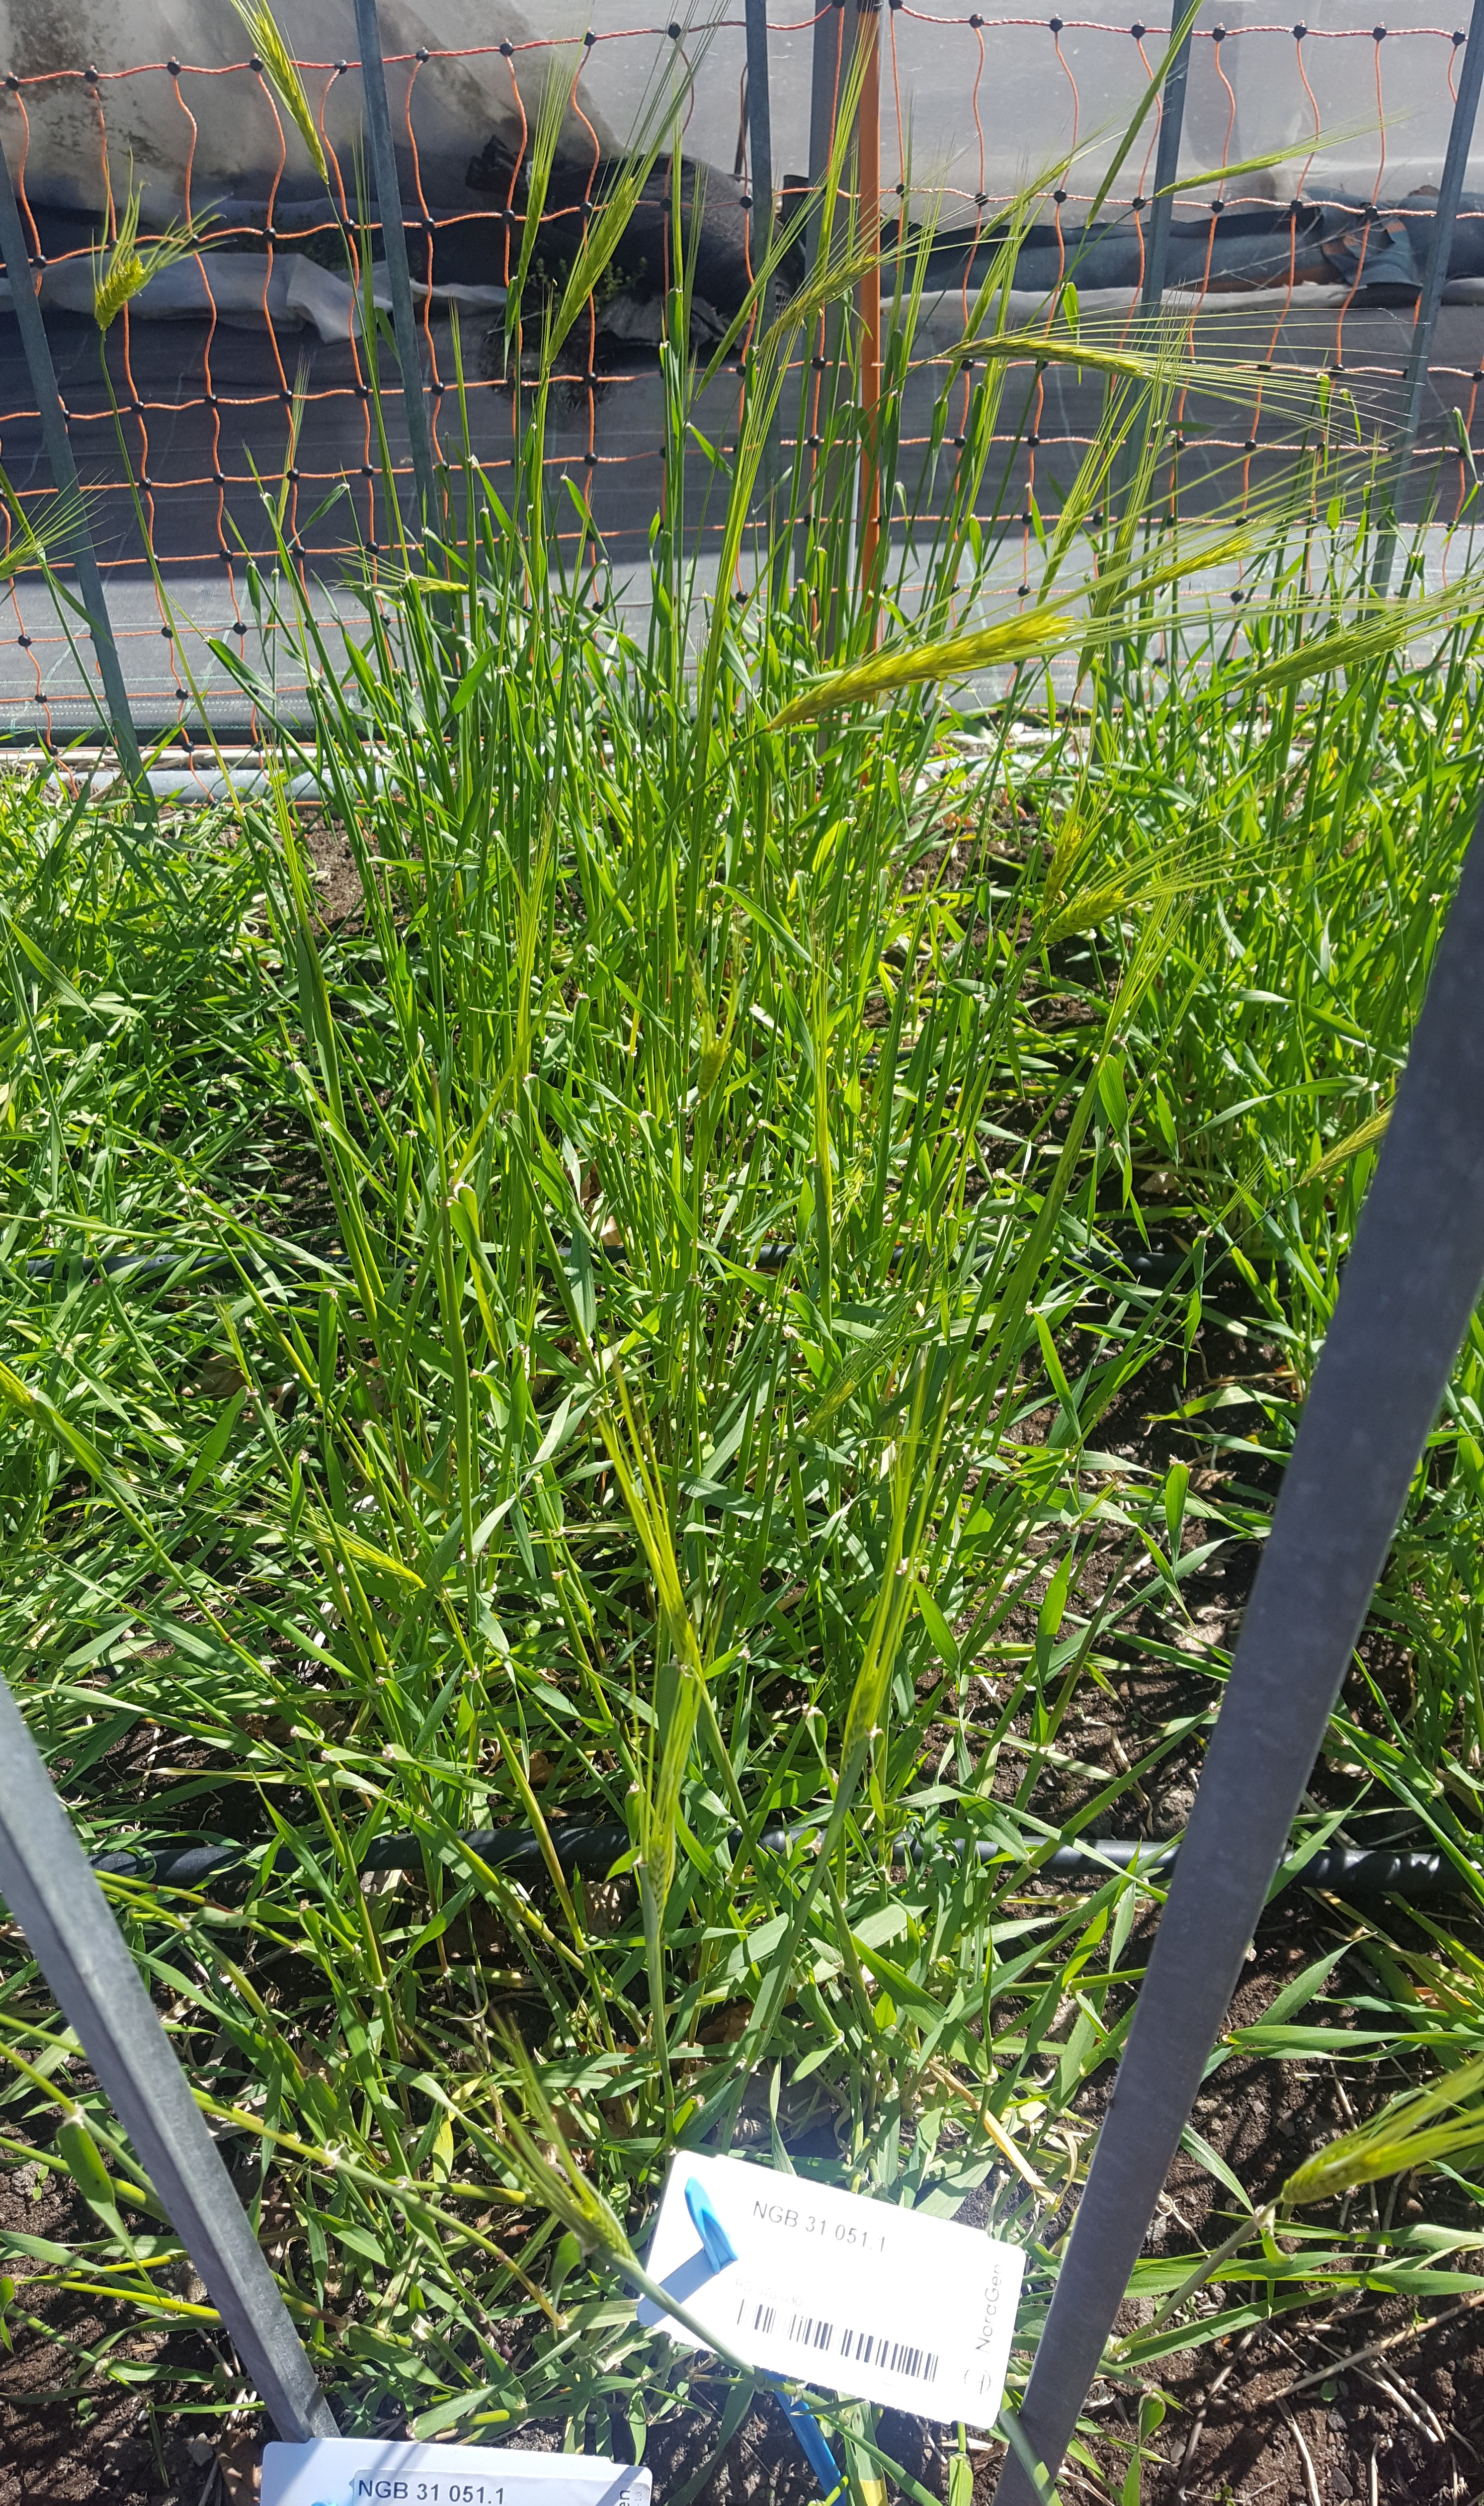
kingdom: Plantae
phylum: Tracheophyta
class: Liliopsida
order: Poales
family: Poaceae
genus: Hordeum
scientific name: Hordeum spontaneum
